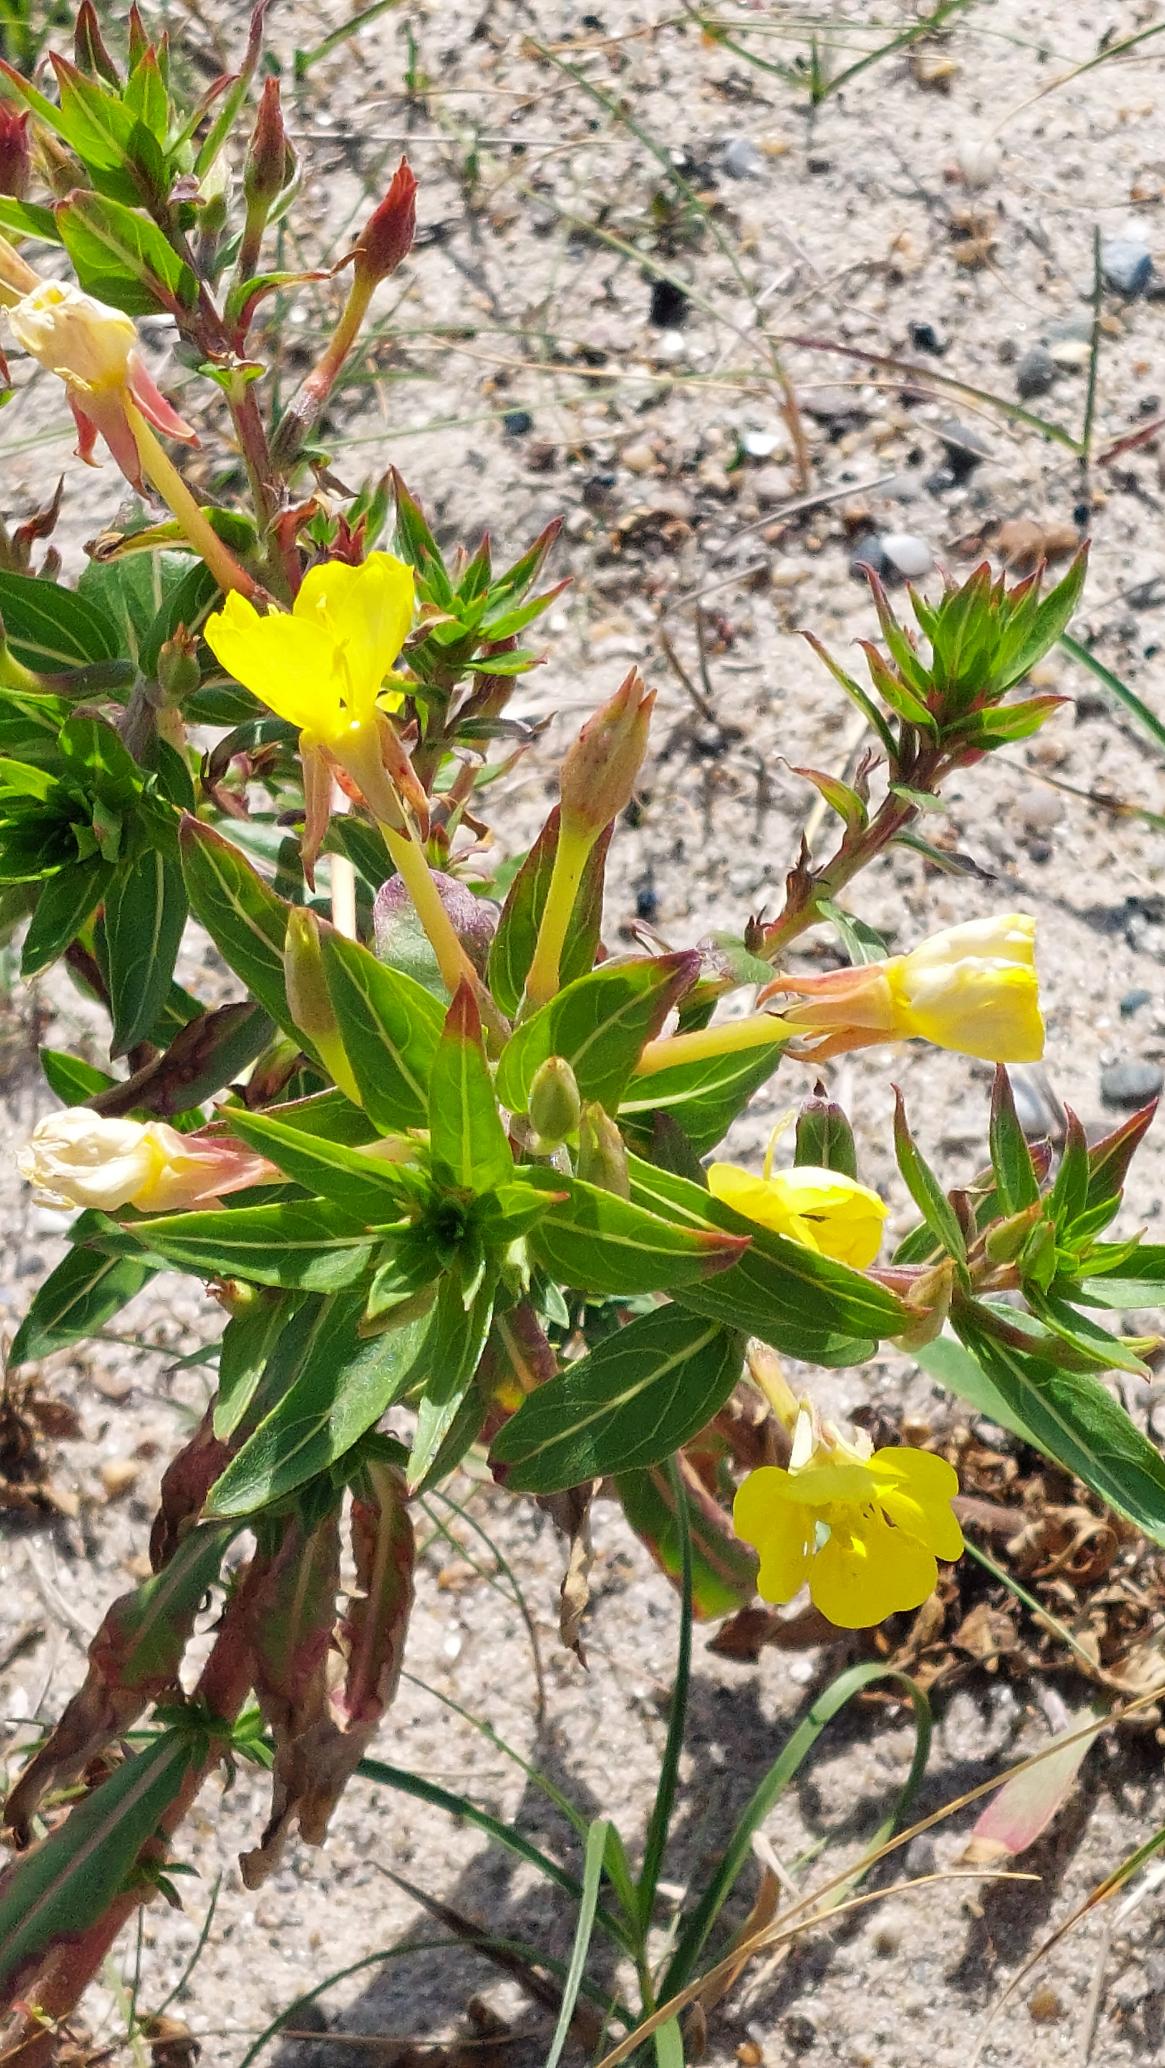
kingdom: Plantae
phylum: Tracheophyta
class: Magnoliopsida
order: Myrtales
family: Onagraceae
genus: Oenothera
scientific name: Oenothera ammophila
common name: Klit-natlys
